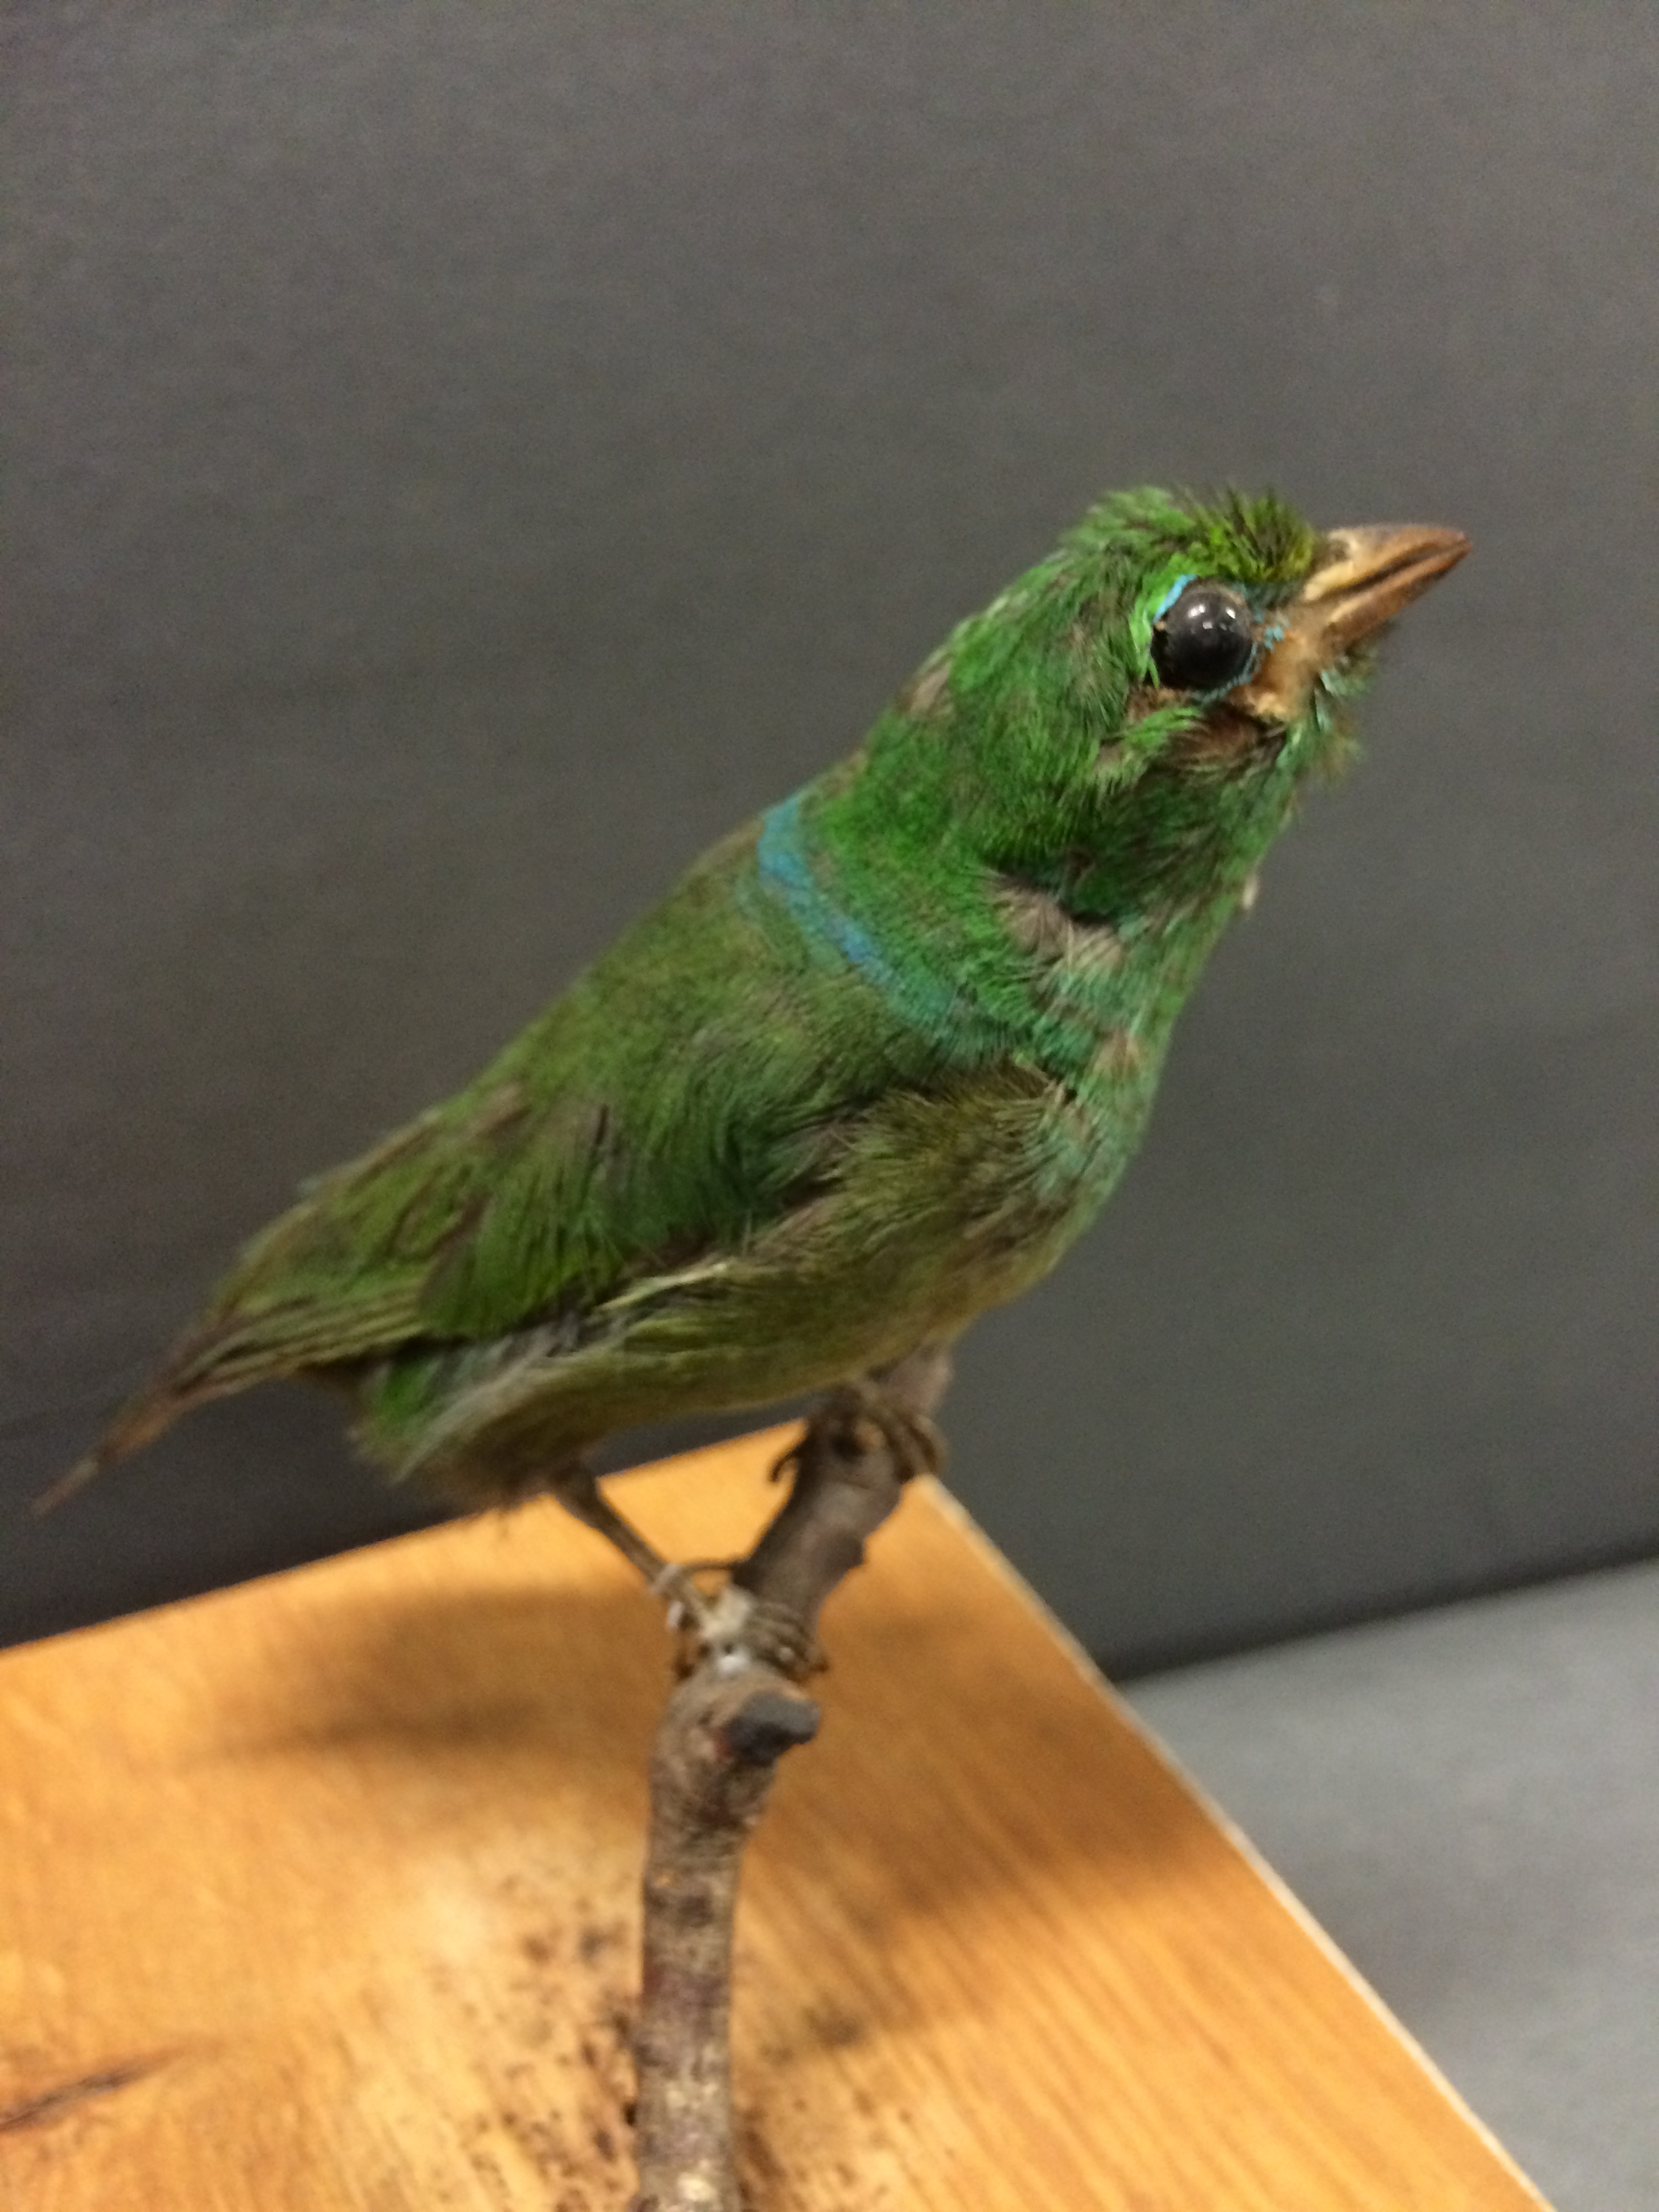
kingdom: Animalia
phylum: Chordata
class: Aves
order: Passeriformes
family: Fringillidae
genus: Chlorophonia
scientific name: Chlorophonia cyanea
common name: Blue-naped chlorophonia
